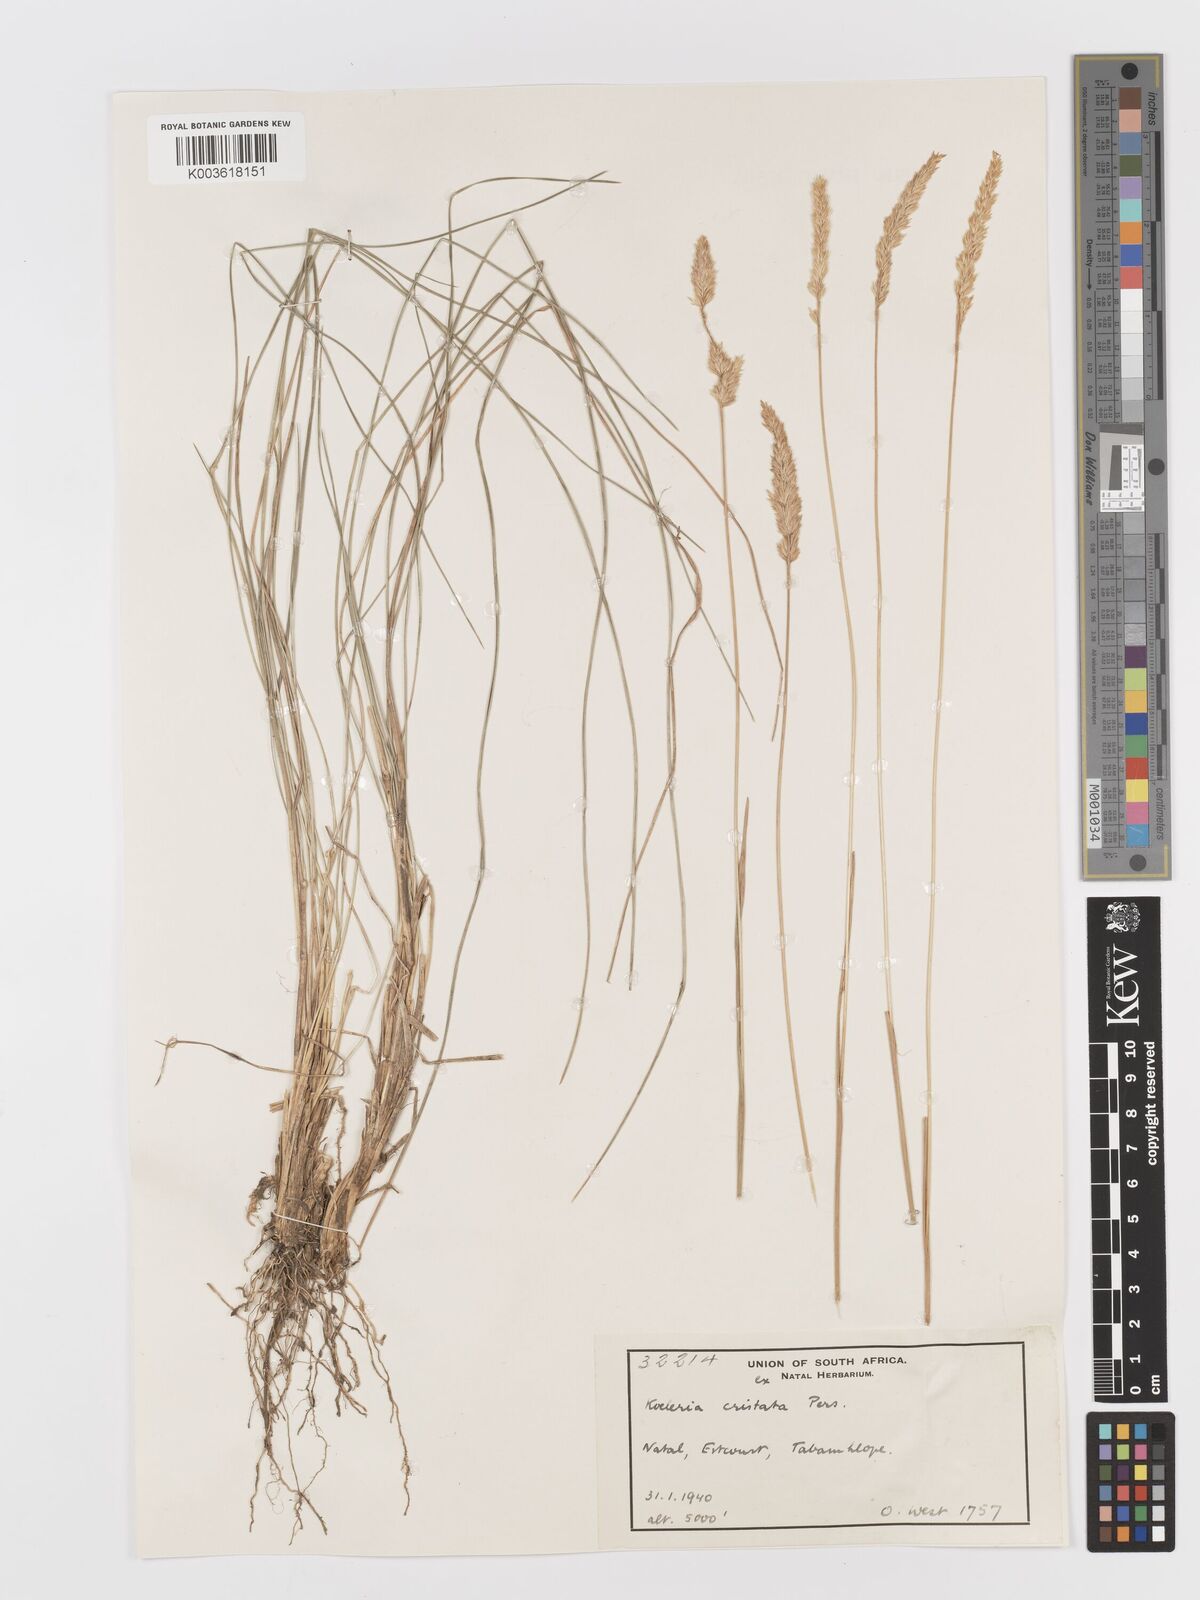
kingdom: Plantae
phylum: Tracheophyta
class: Liliopsida
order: Poales
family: Poaceae
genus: Koeleria
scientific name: Koeleria capensis
